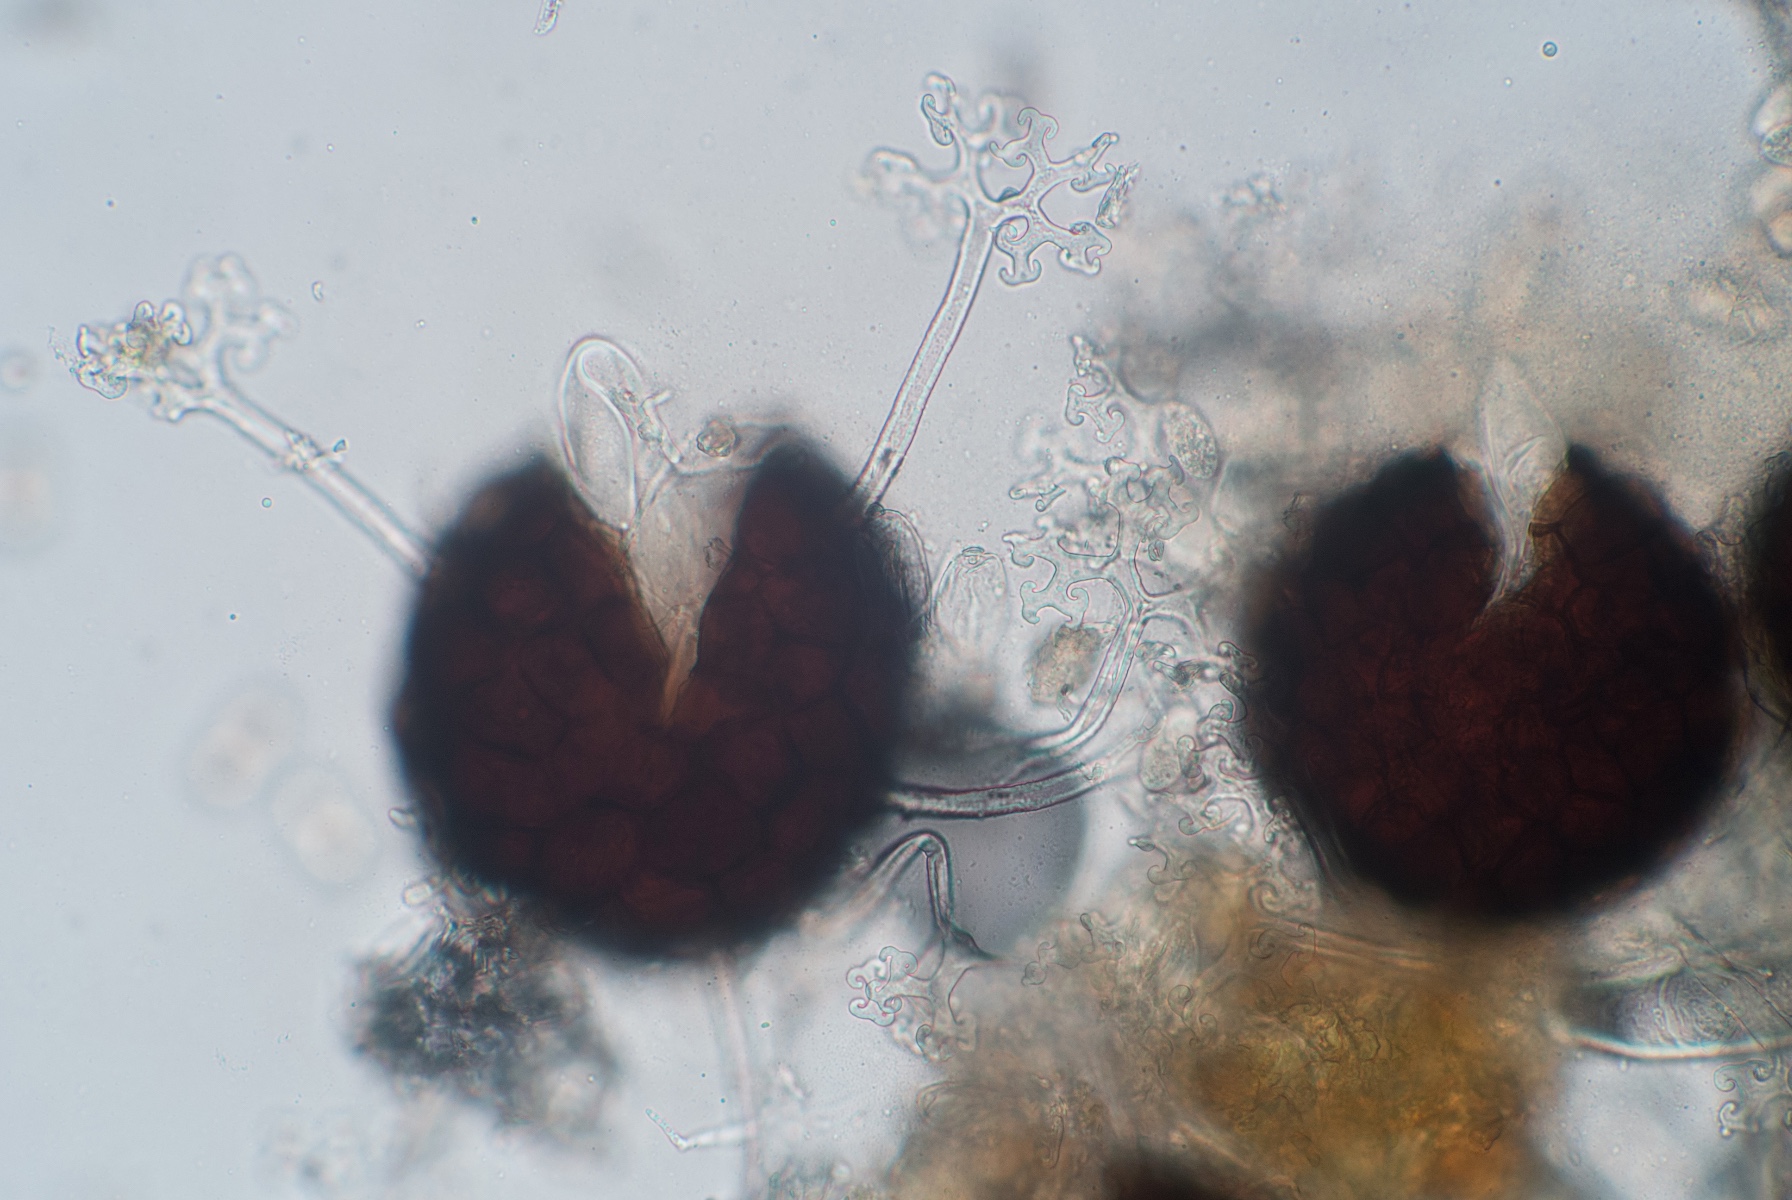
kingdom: Fungi
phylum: Ascomycota
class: Leotiomycetes
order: Helotiales
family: Erysiphaceae
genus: Erysiphe
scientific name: Erysiphe magnifica
